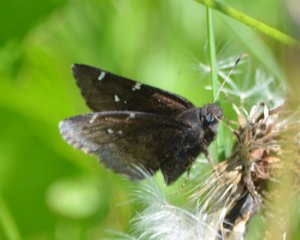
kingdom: Animalia
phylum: Arthropoda
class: Insecta
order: Lepidoptera
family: Hesperiidae
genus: Autochton
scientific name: Autochton
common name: Northern Cloudywing
